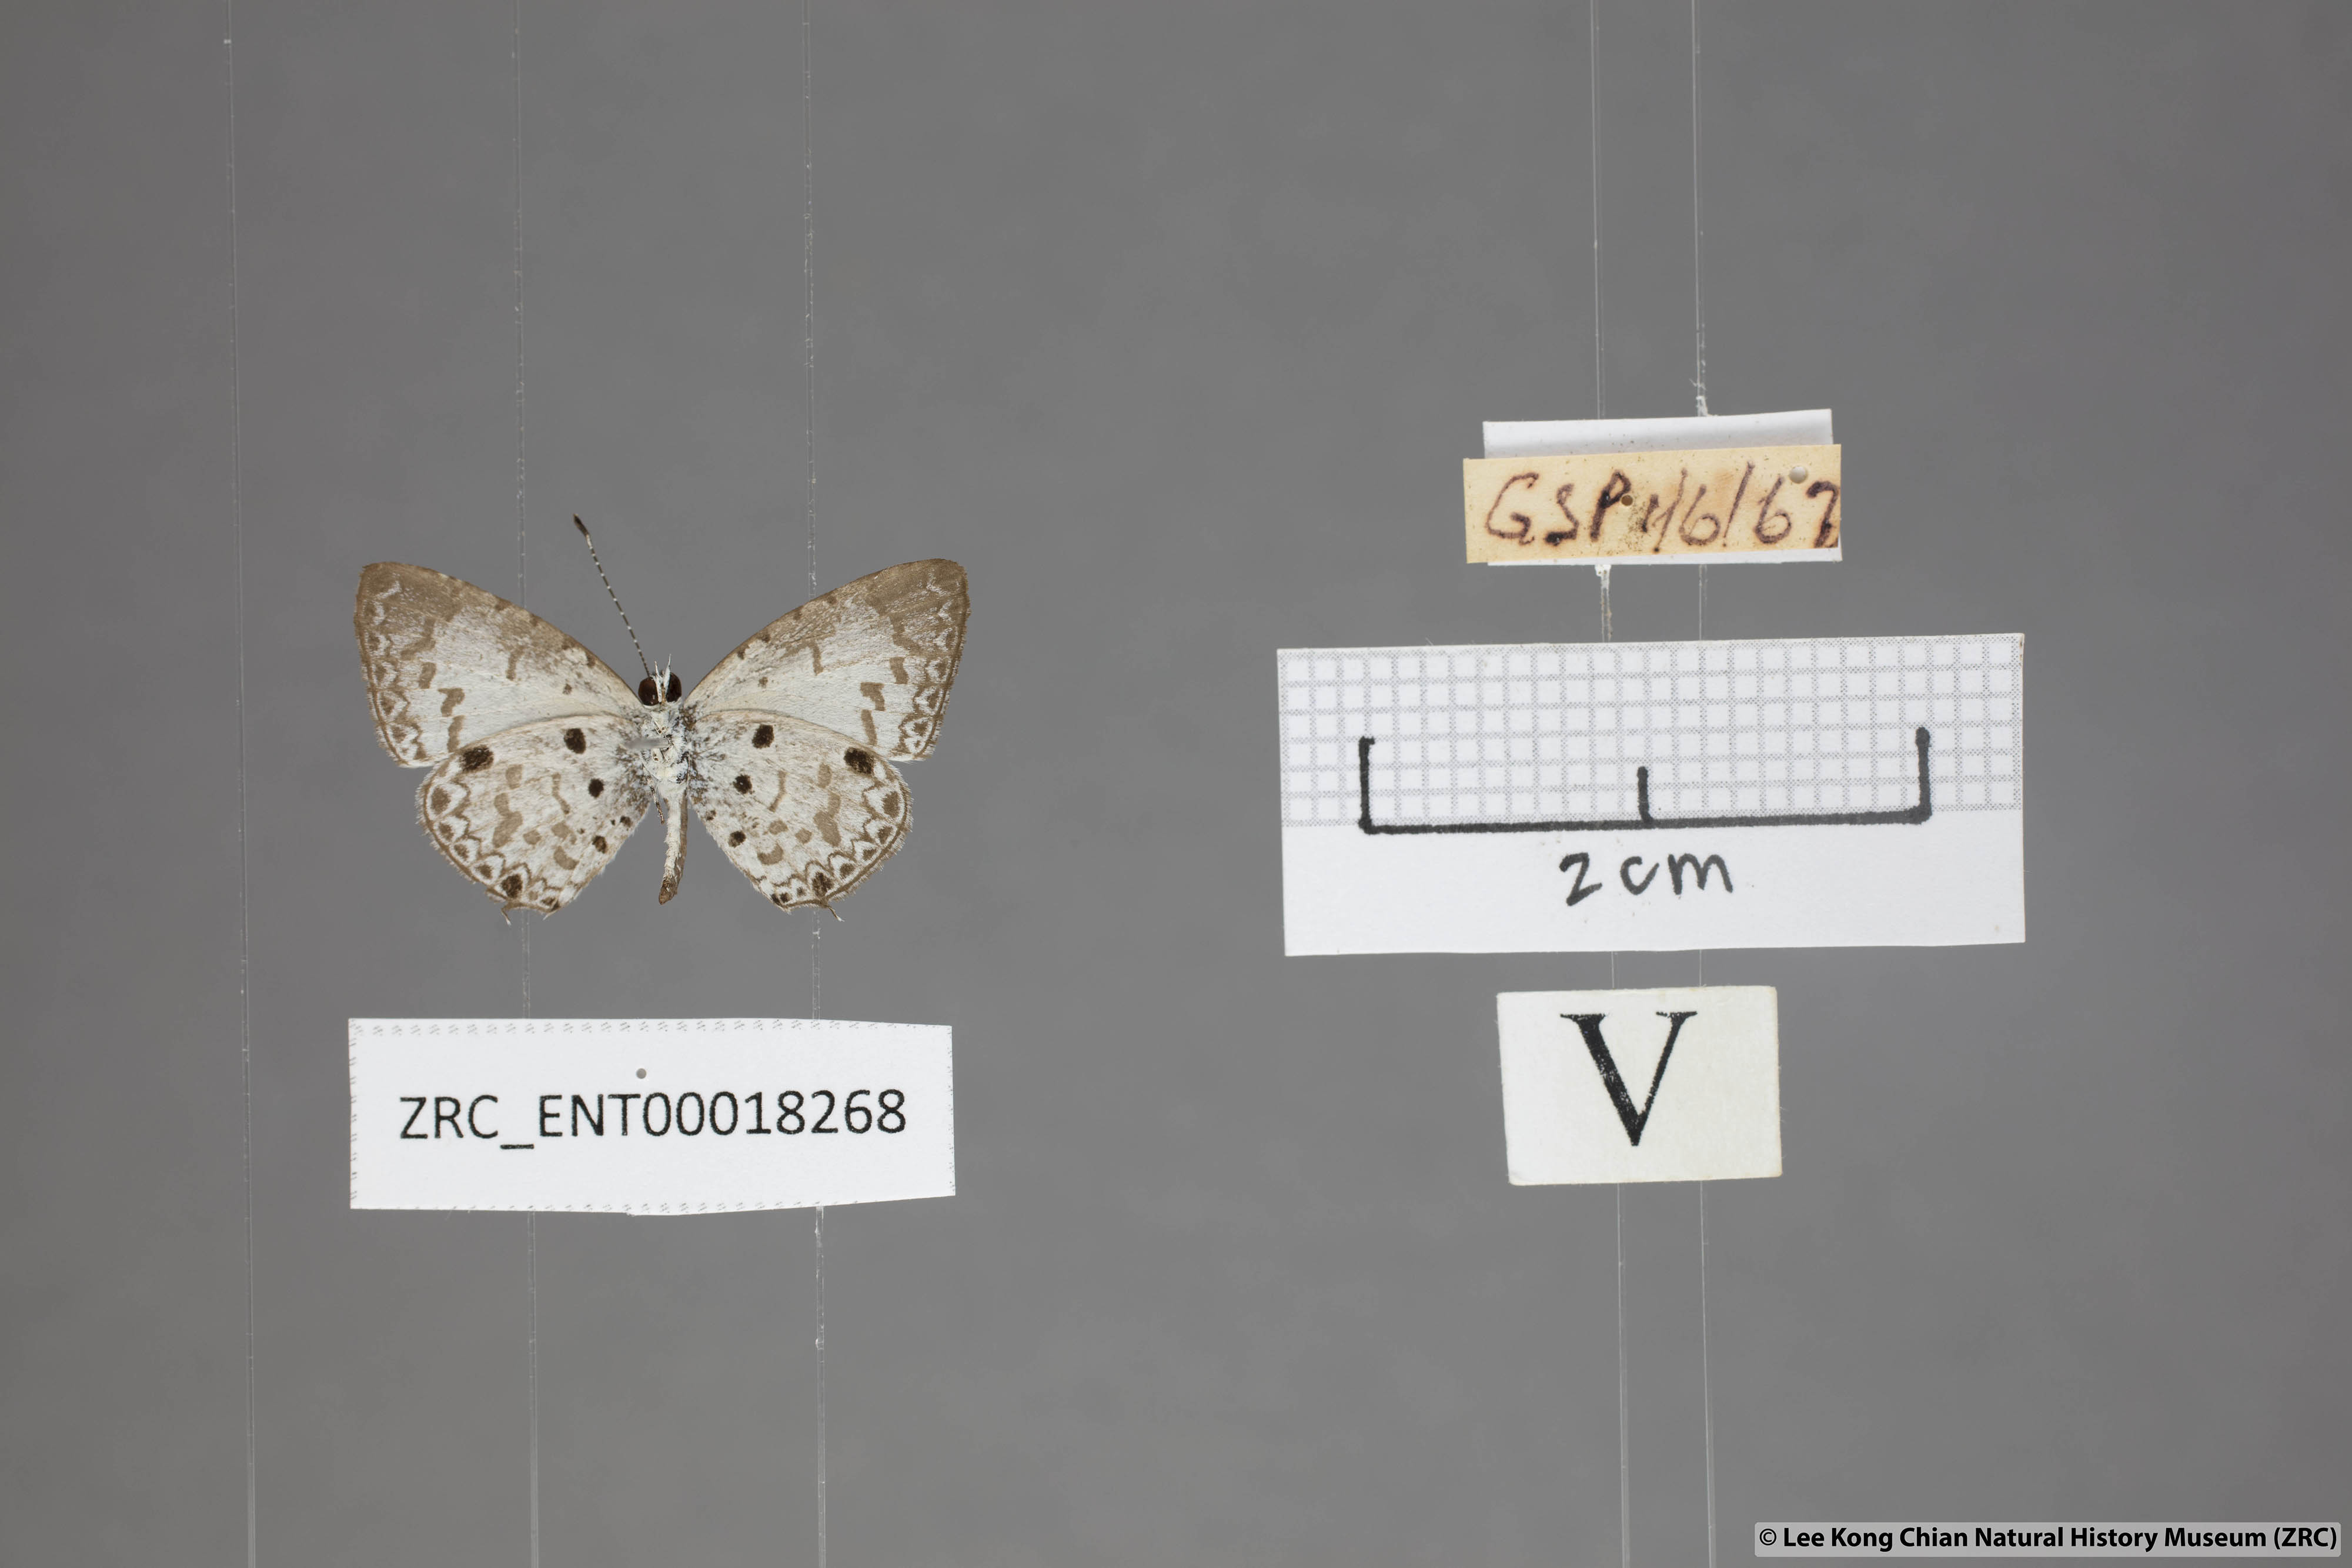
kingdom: Animalia
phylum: Arthropoda
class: Insecta
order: Lepidoptera
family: Lycaenidae
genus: Megisba
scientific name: Megisba malaya
